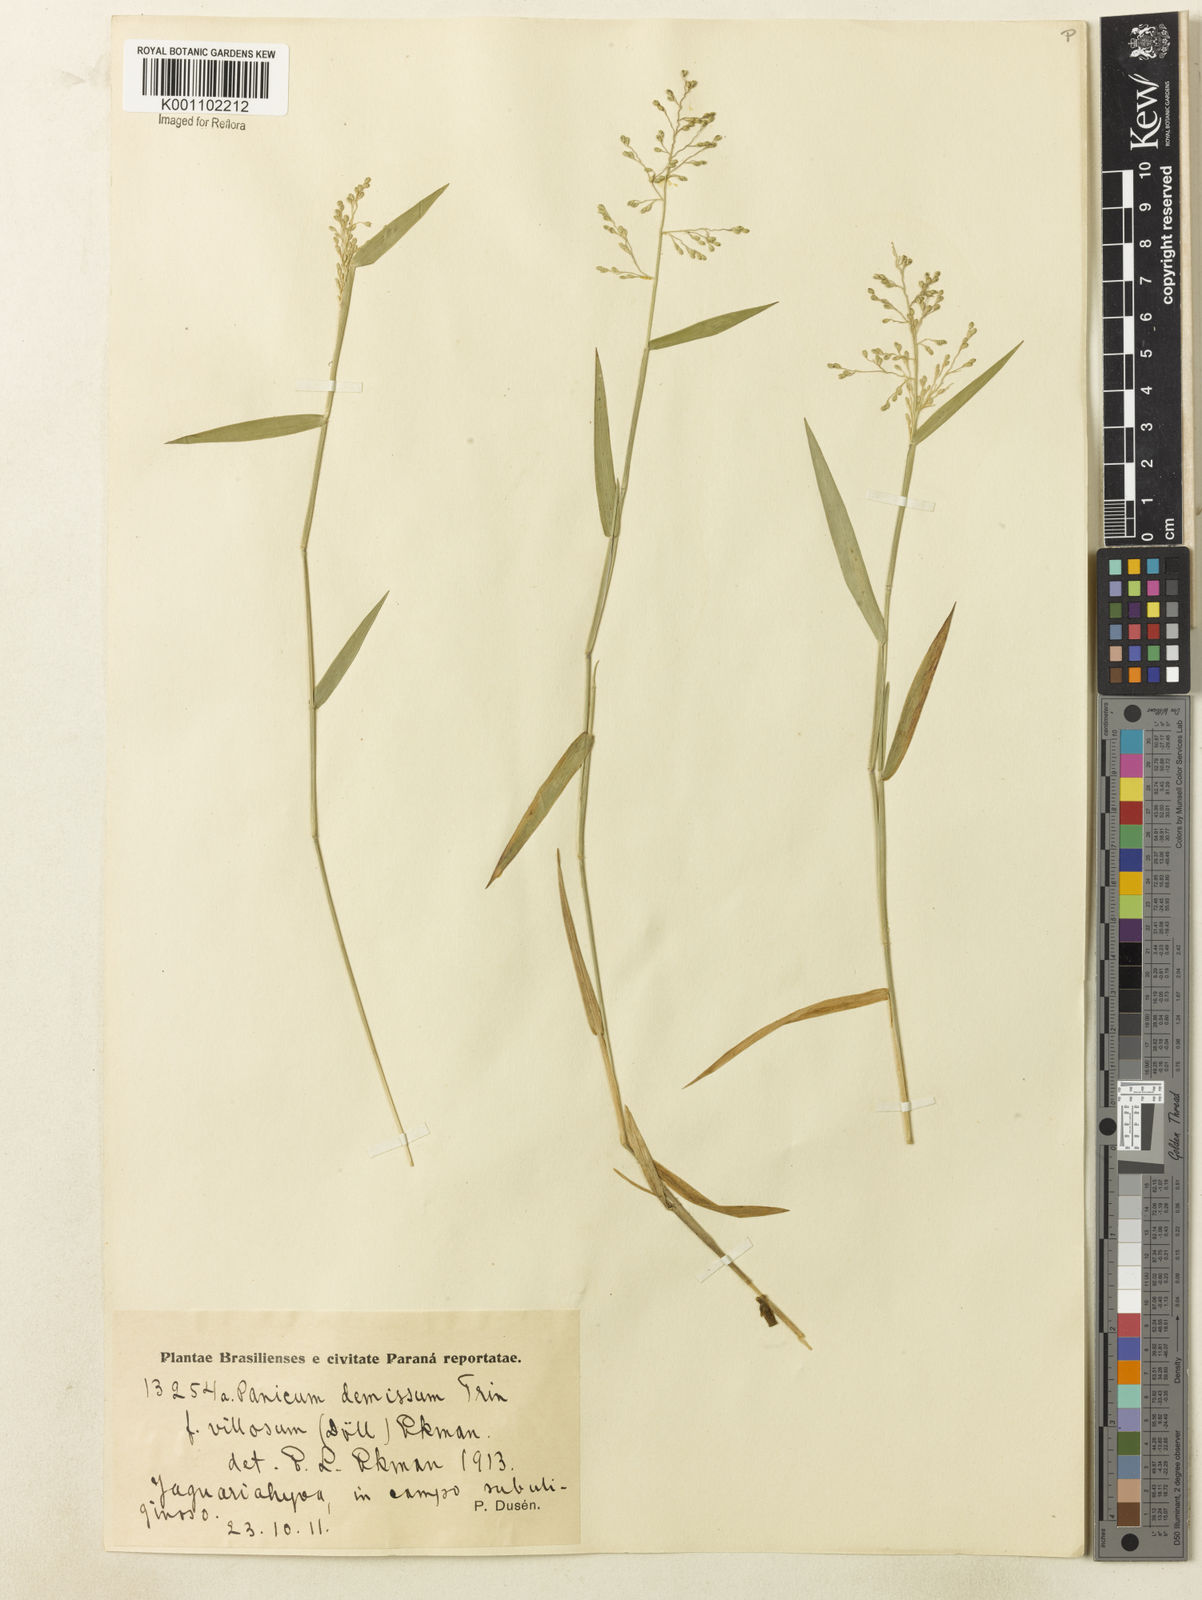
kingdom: Plantae
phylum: Tracheophyta
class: Liliopsida
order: Poales
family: Poaceae
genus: Dichanthelium
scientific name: Dichanthelium sabulorum
